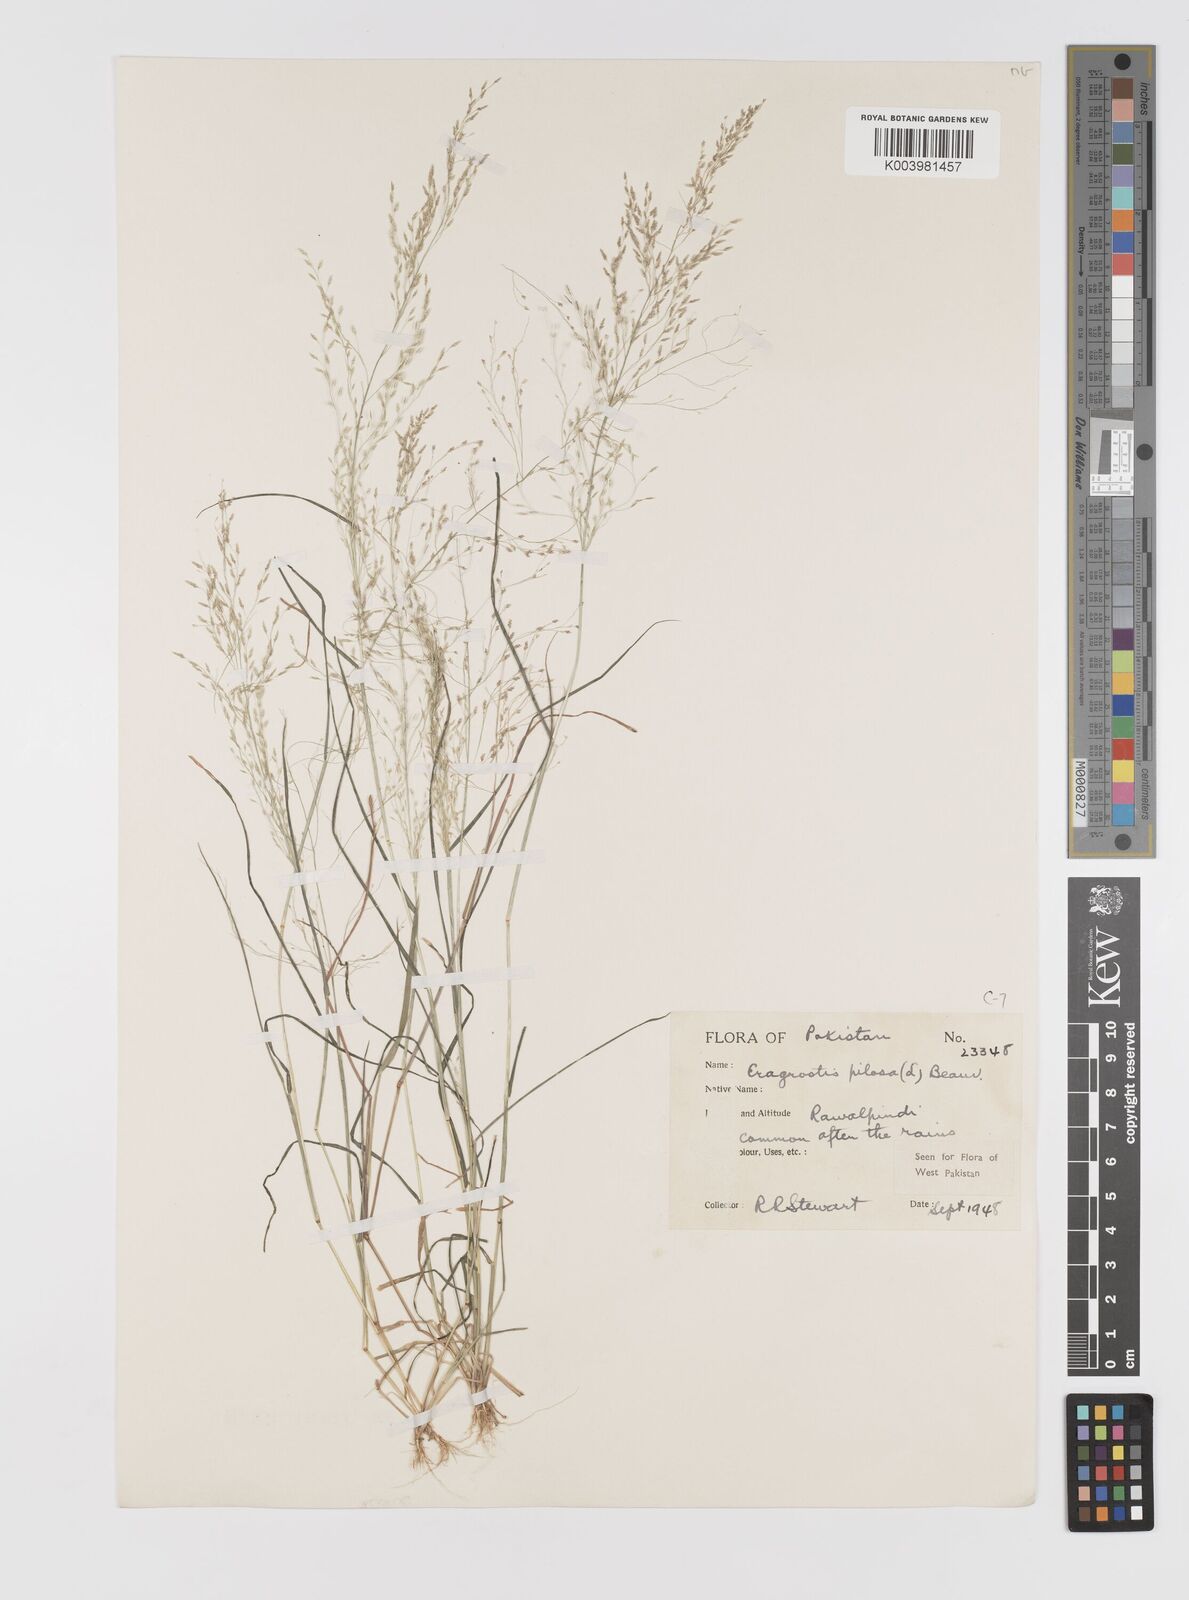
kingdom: Plantae
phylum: Tracheophyta
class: Liliopsida
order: Poales
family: Poaceae
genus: Eragrostis
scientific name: Eragrostis pilosa
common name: Indian lovegrass
